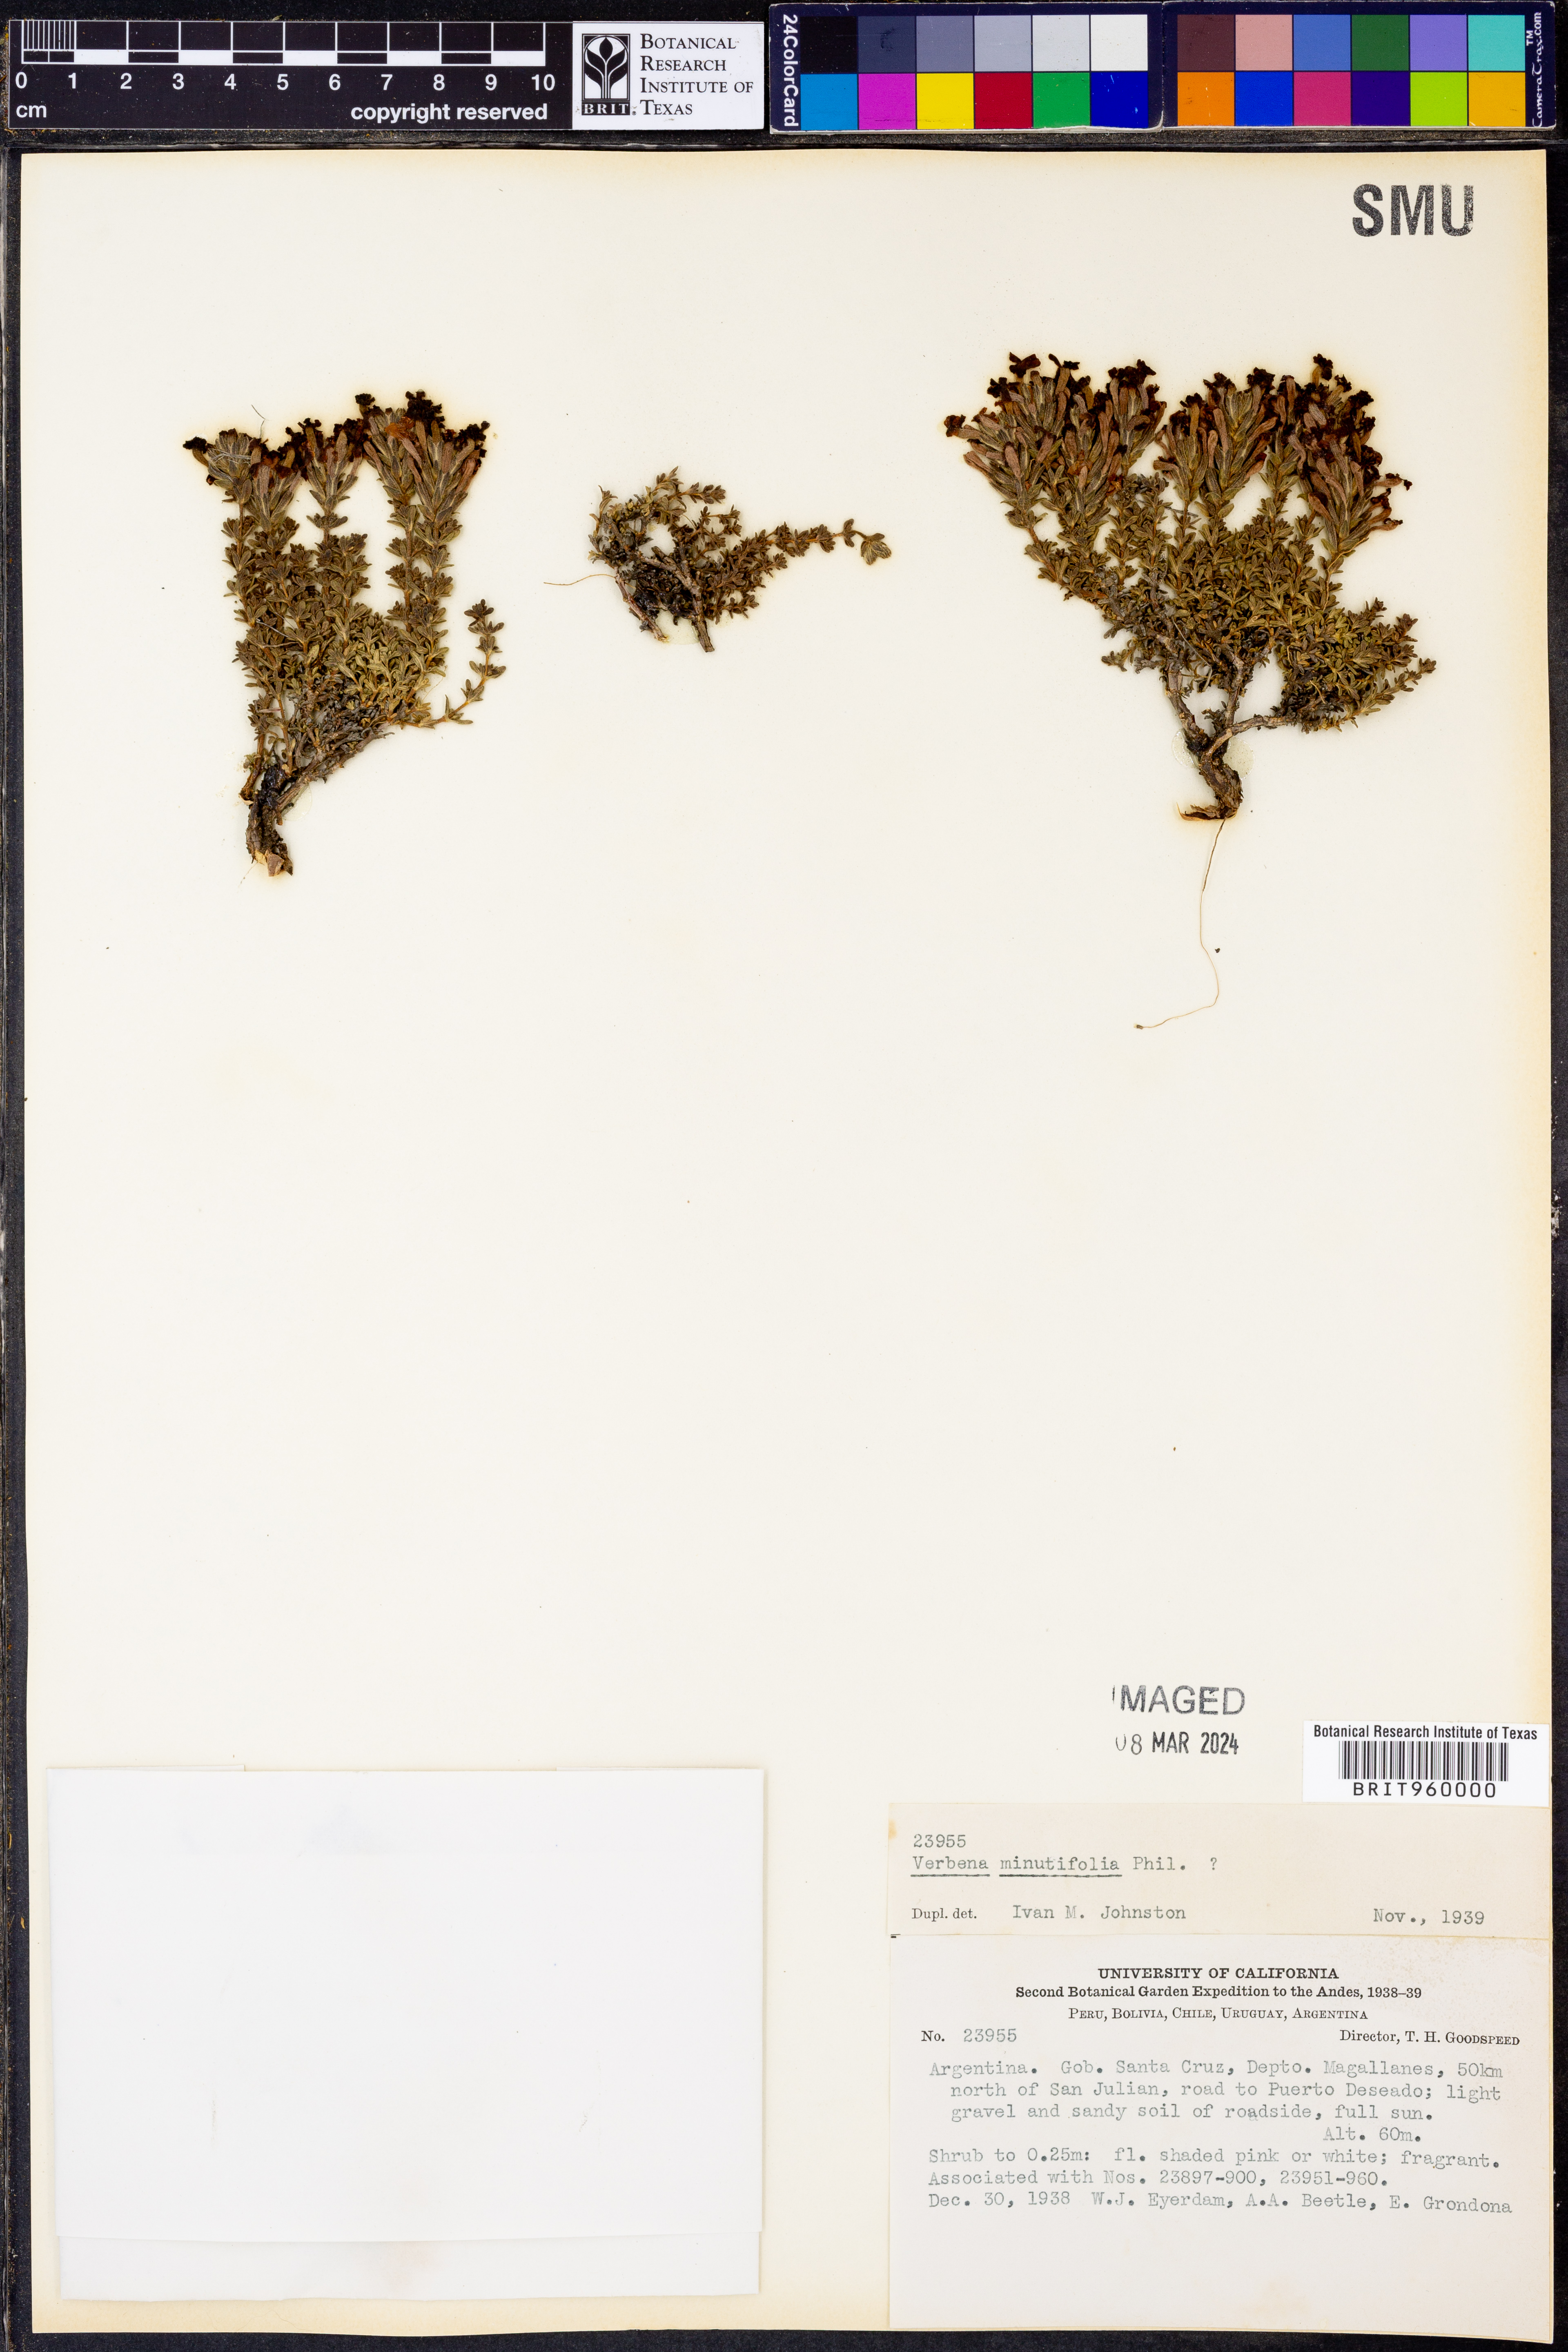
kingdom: Plantae
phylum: Tracheophyta
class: Magnoliopsida
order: Lamiales
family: Verbenaceae
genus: Verbena
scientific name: Verbena
